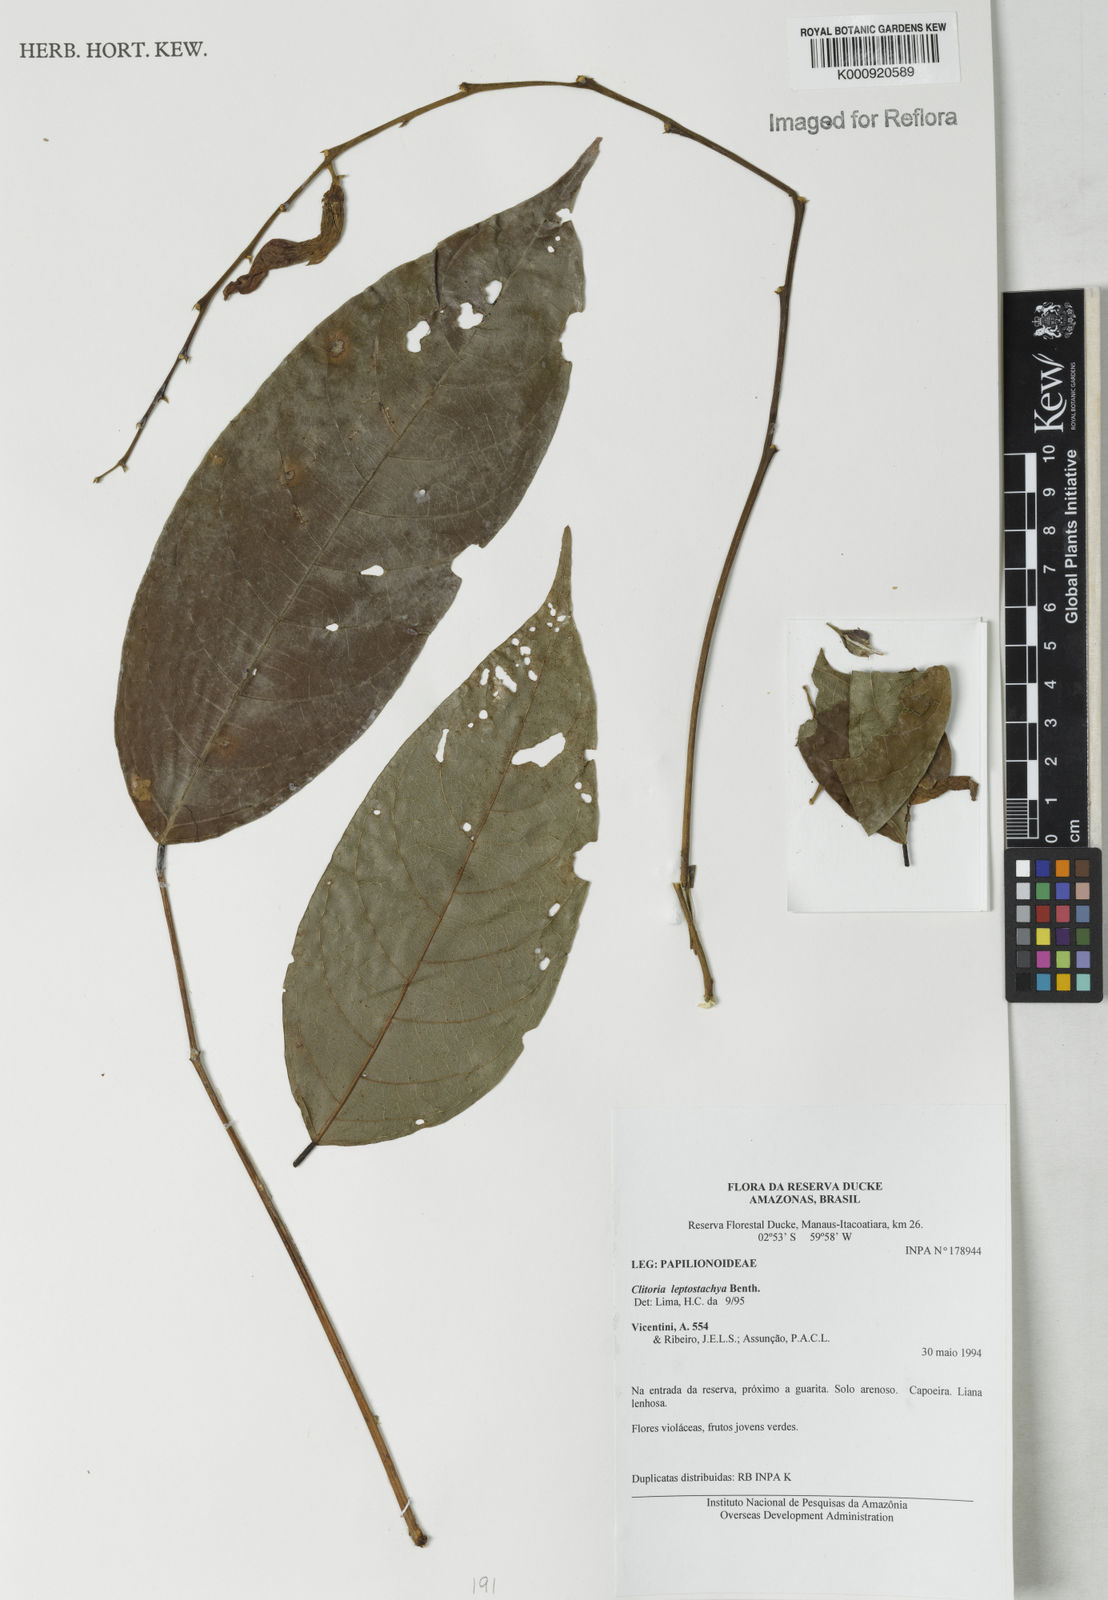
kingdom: Plantae
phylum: Tracheophyta
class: Magnoliopsida
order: Fabales
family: Fabaceae
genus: Clitoria
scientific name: Clitoria leptostachya
